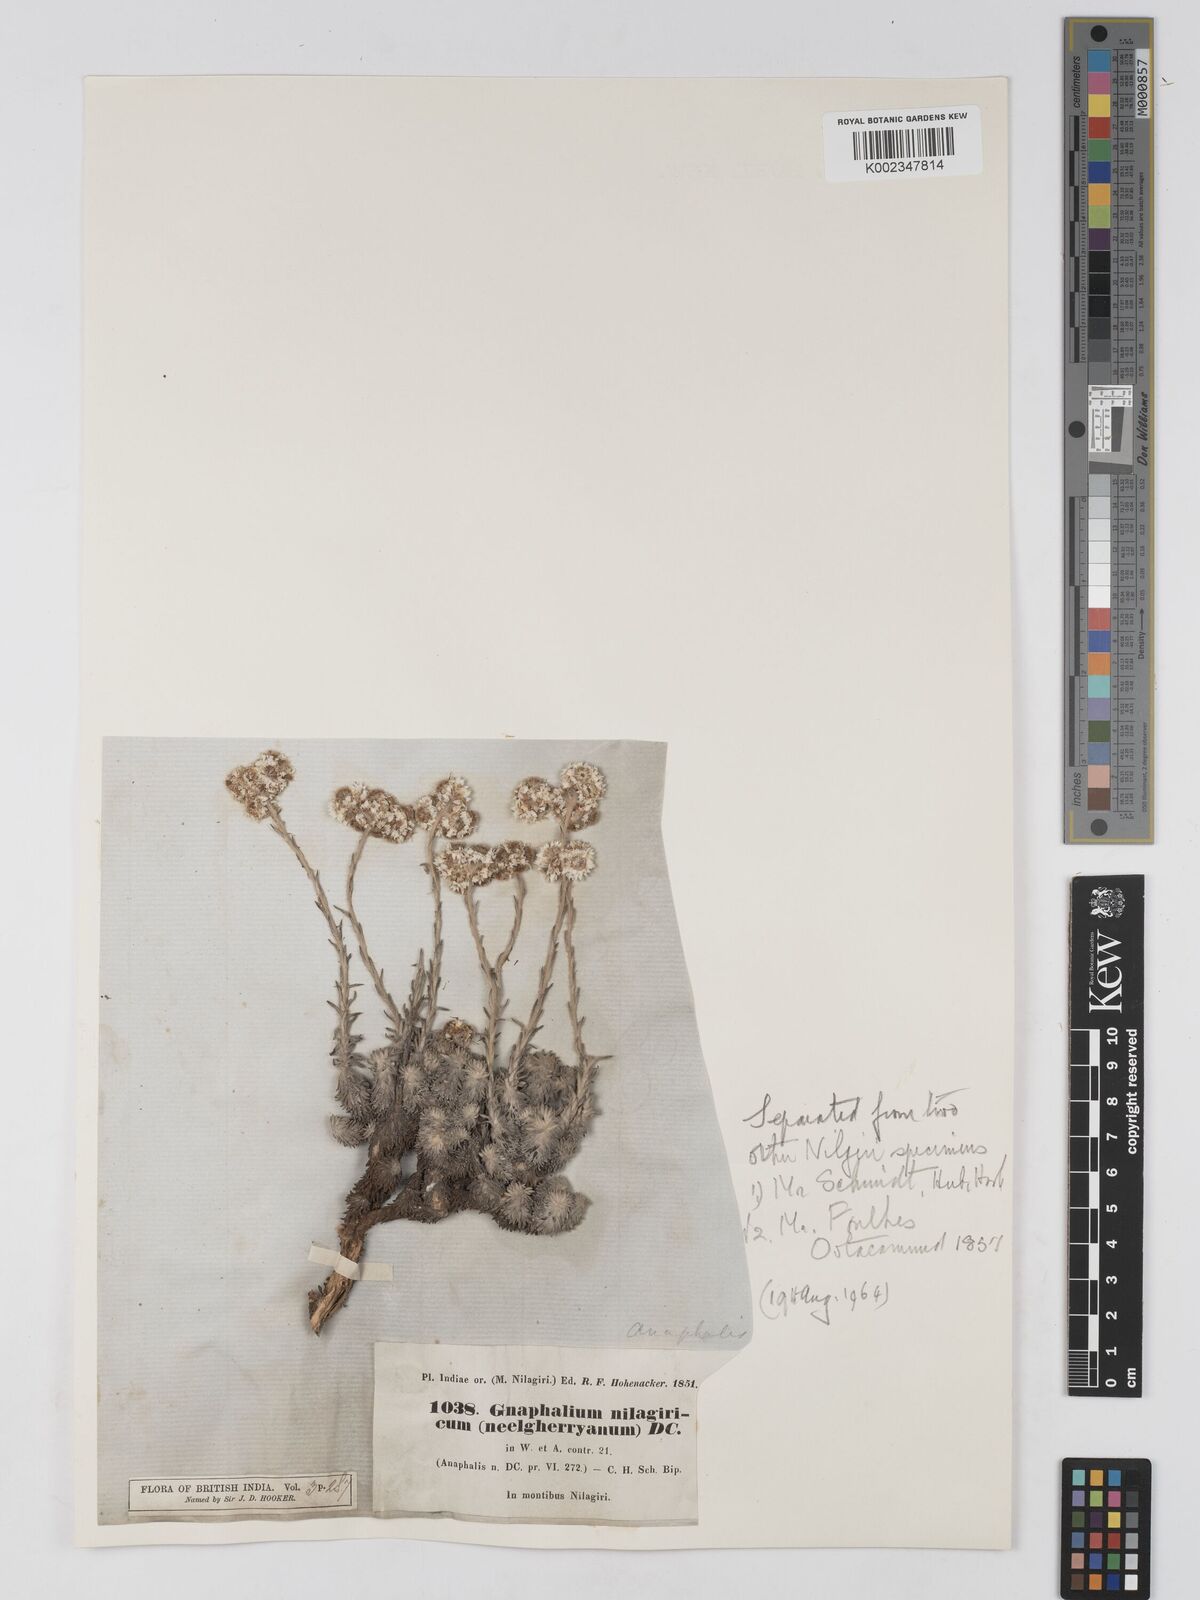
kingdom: Plantae
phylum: Tracheophyta
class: Magnoliopsida
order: Asterales
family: Asteraceae
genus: Anaphalis
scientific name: Anaphalis neelgerryana
